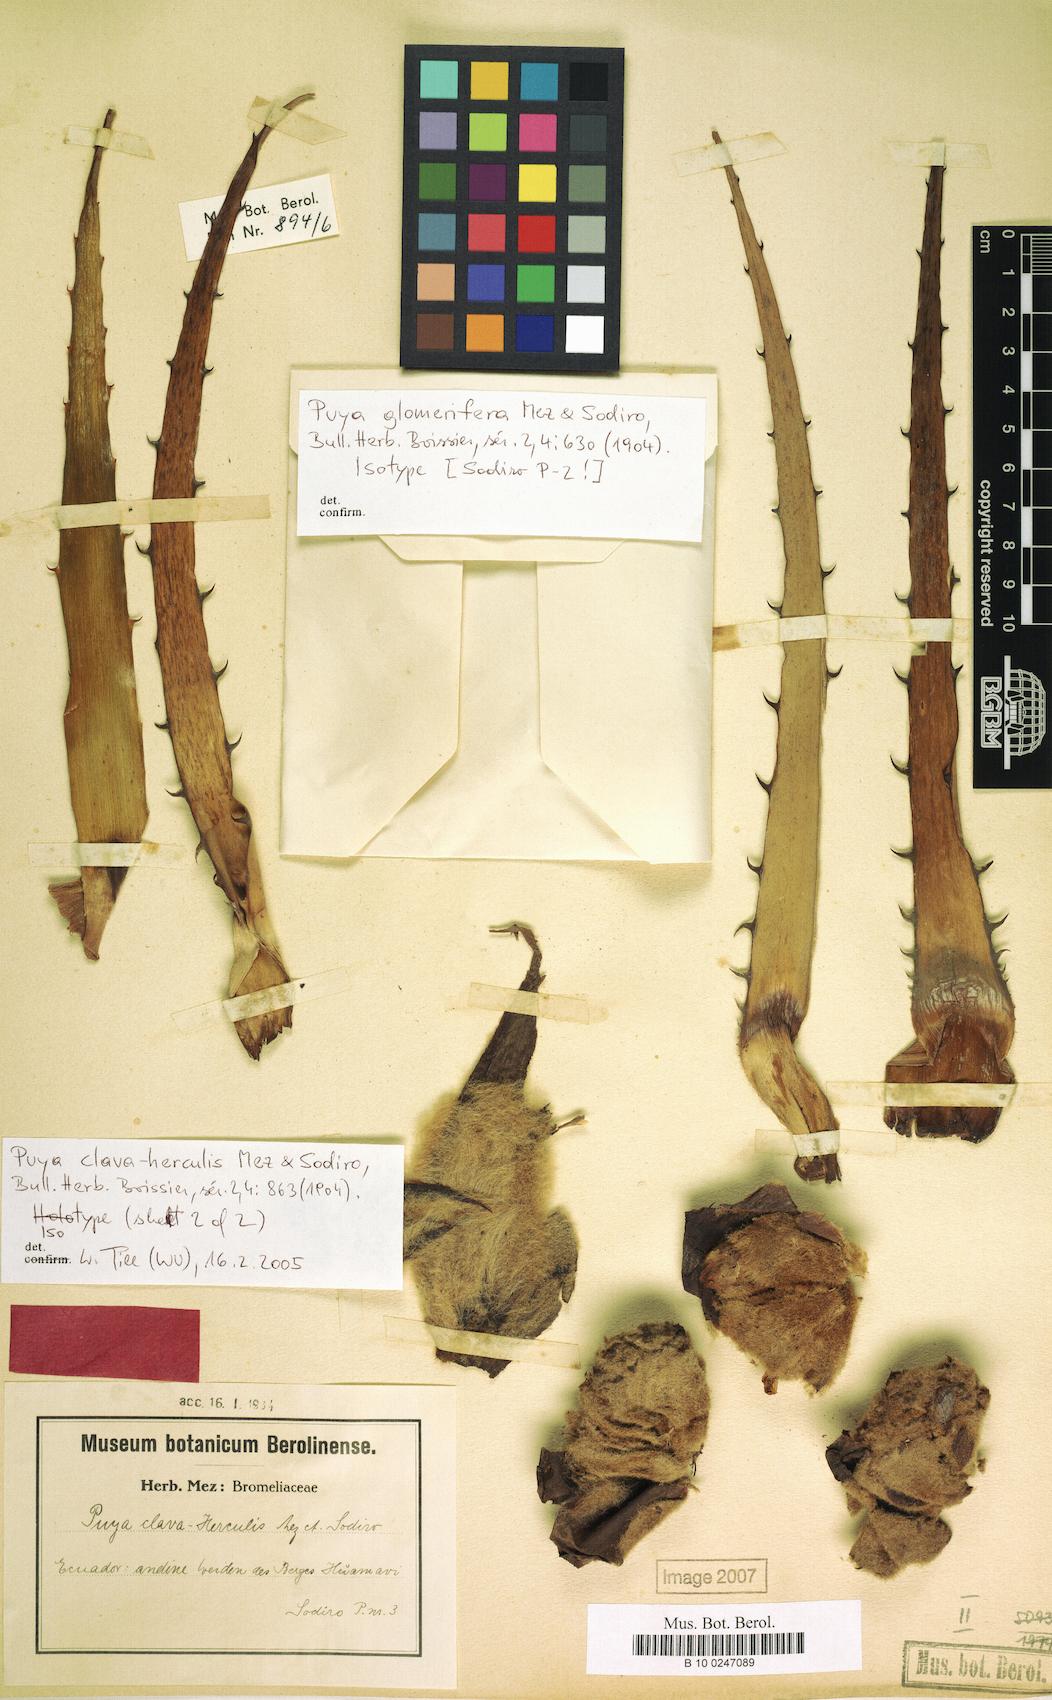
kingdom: Plantae
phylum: Tracheophyta
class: Liliopsida
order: Poales
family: Bromeliaceae
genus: Puya
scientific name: Puya clava-herculis
